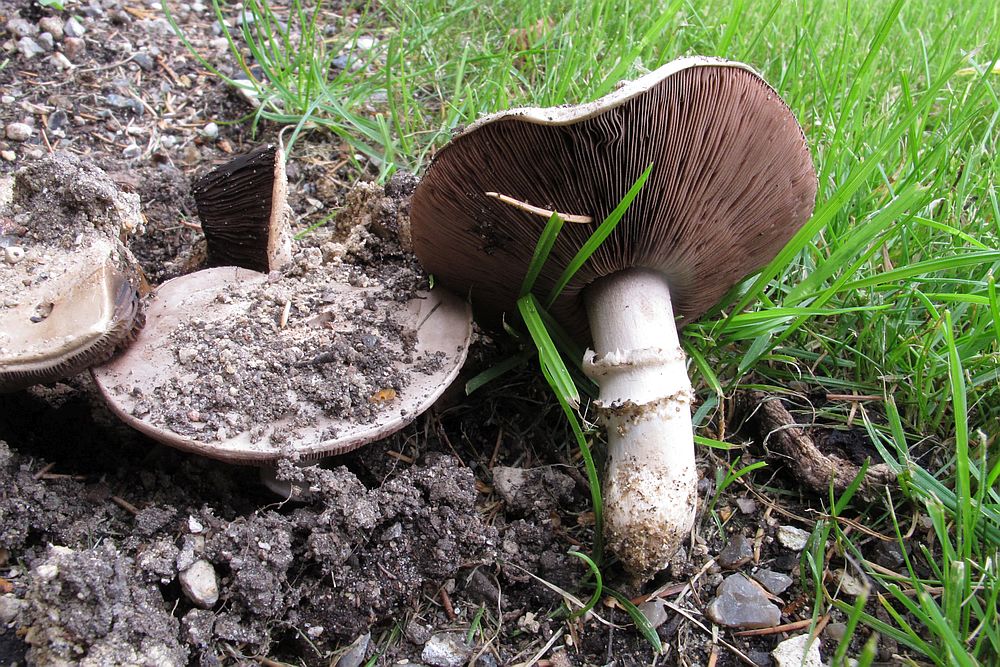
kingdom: Fungi
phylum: Basidiomycota
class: Agaricomycetes
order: Agaricales
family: Agaricaceae
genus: Agaricus
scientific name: Agaricus bitorquis
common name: vej-champignon
